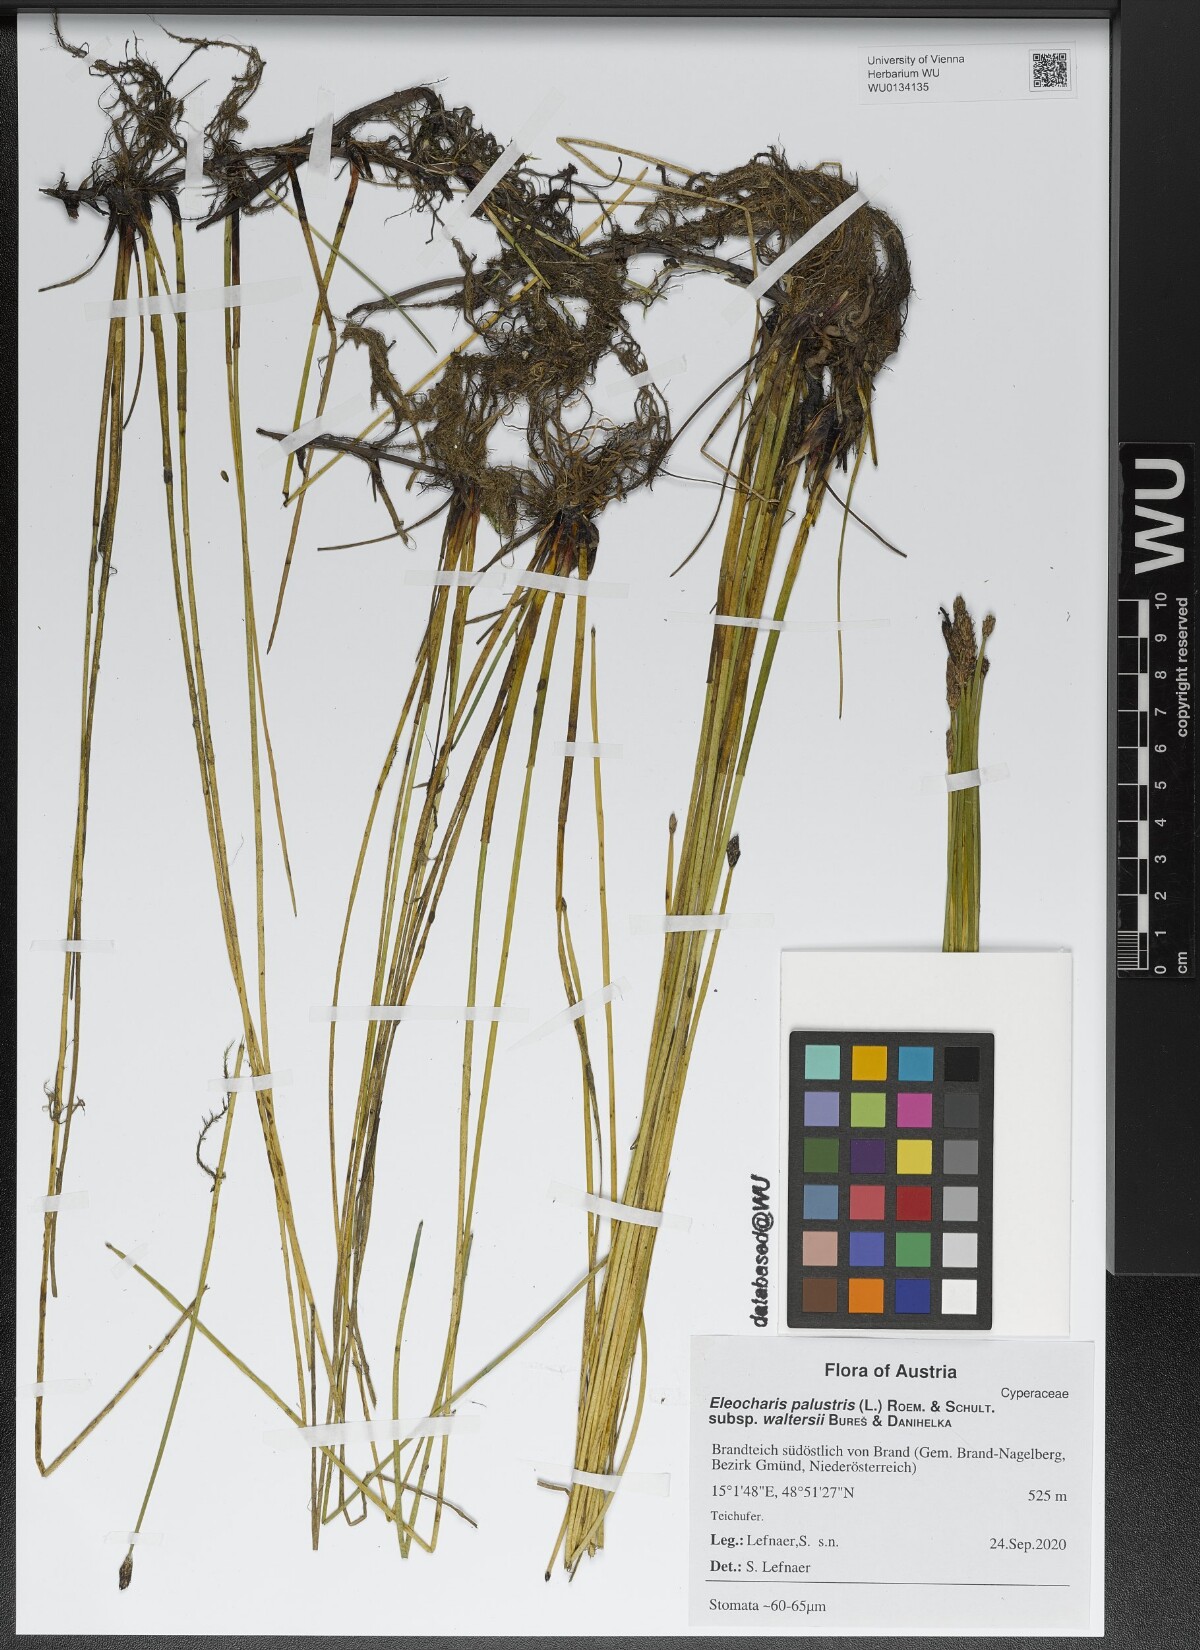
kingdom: Plantae
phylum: Tracheophyta
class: Liliopsida
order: Poales
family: Cyperaceae
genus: Eleocharis
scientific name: Eleocharis palustris
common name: Common spike-rush
